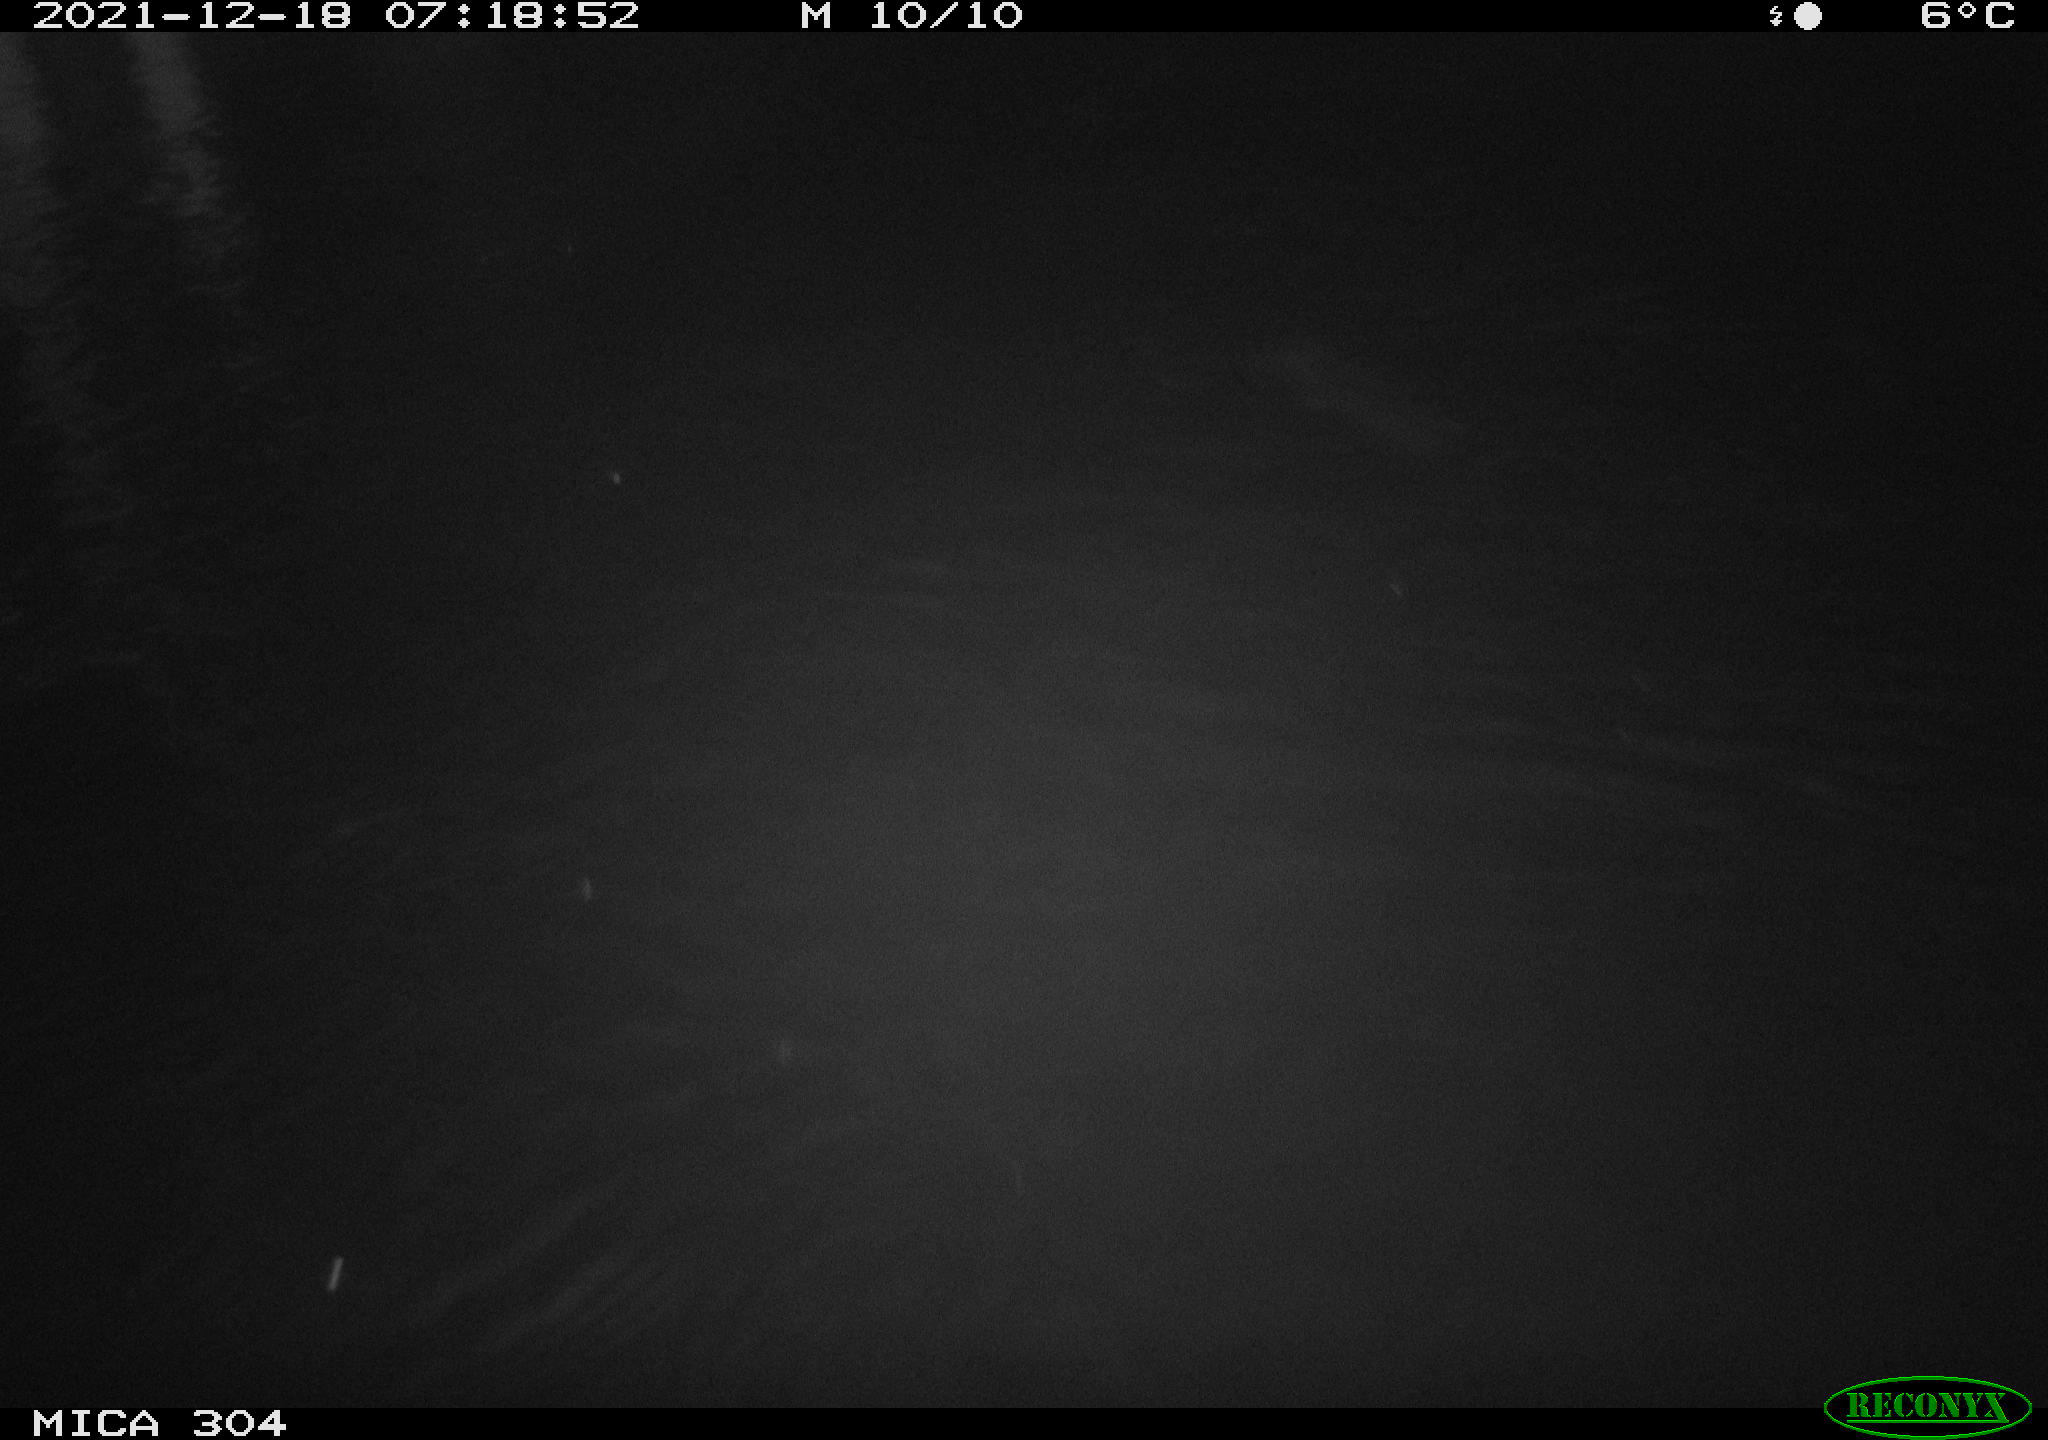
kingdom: Animalia
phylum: Chordata
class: Mammalia
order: Rodentia
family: Muridae
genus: Rattus
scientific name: Rattus norvegicus
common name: Brown rat
